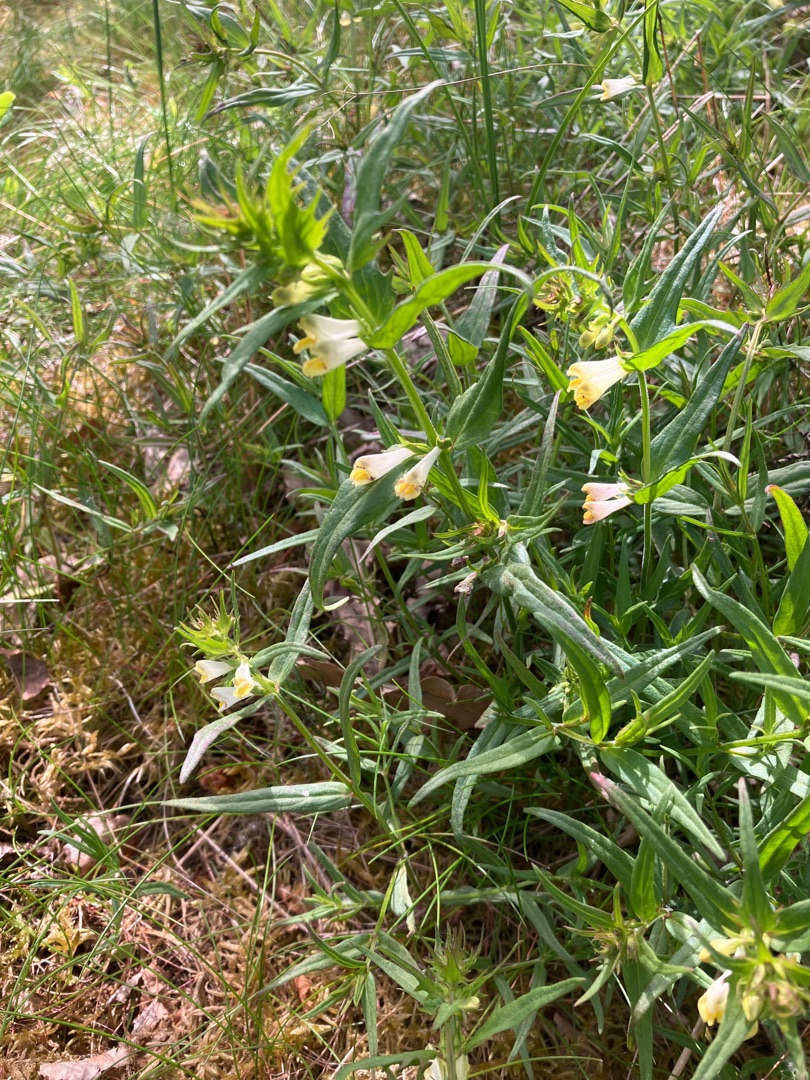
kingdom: Plantae
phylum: Tracheophyta
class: Magnoliopsida
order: Lamiales
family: Orobanchaceae
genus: Melampyrum
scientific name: Melampyrum pratense
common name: Almindelig kohvede
